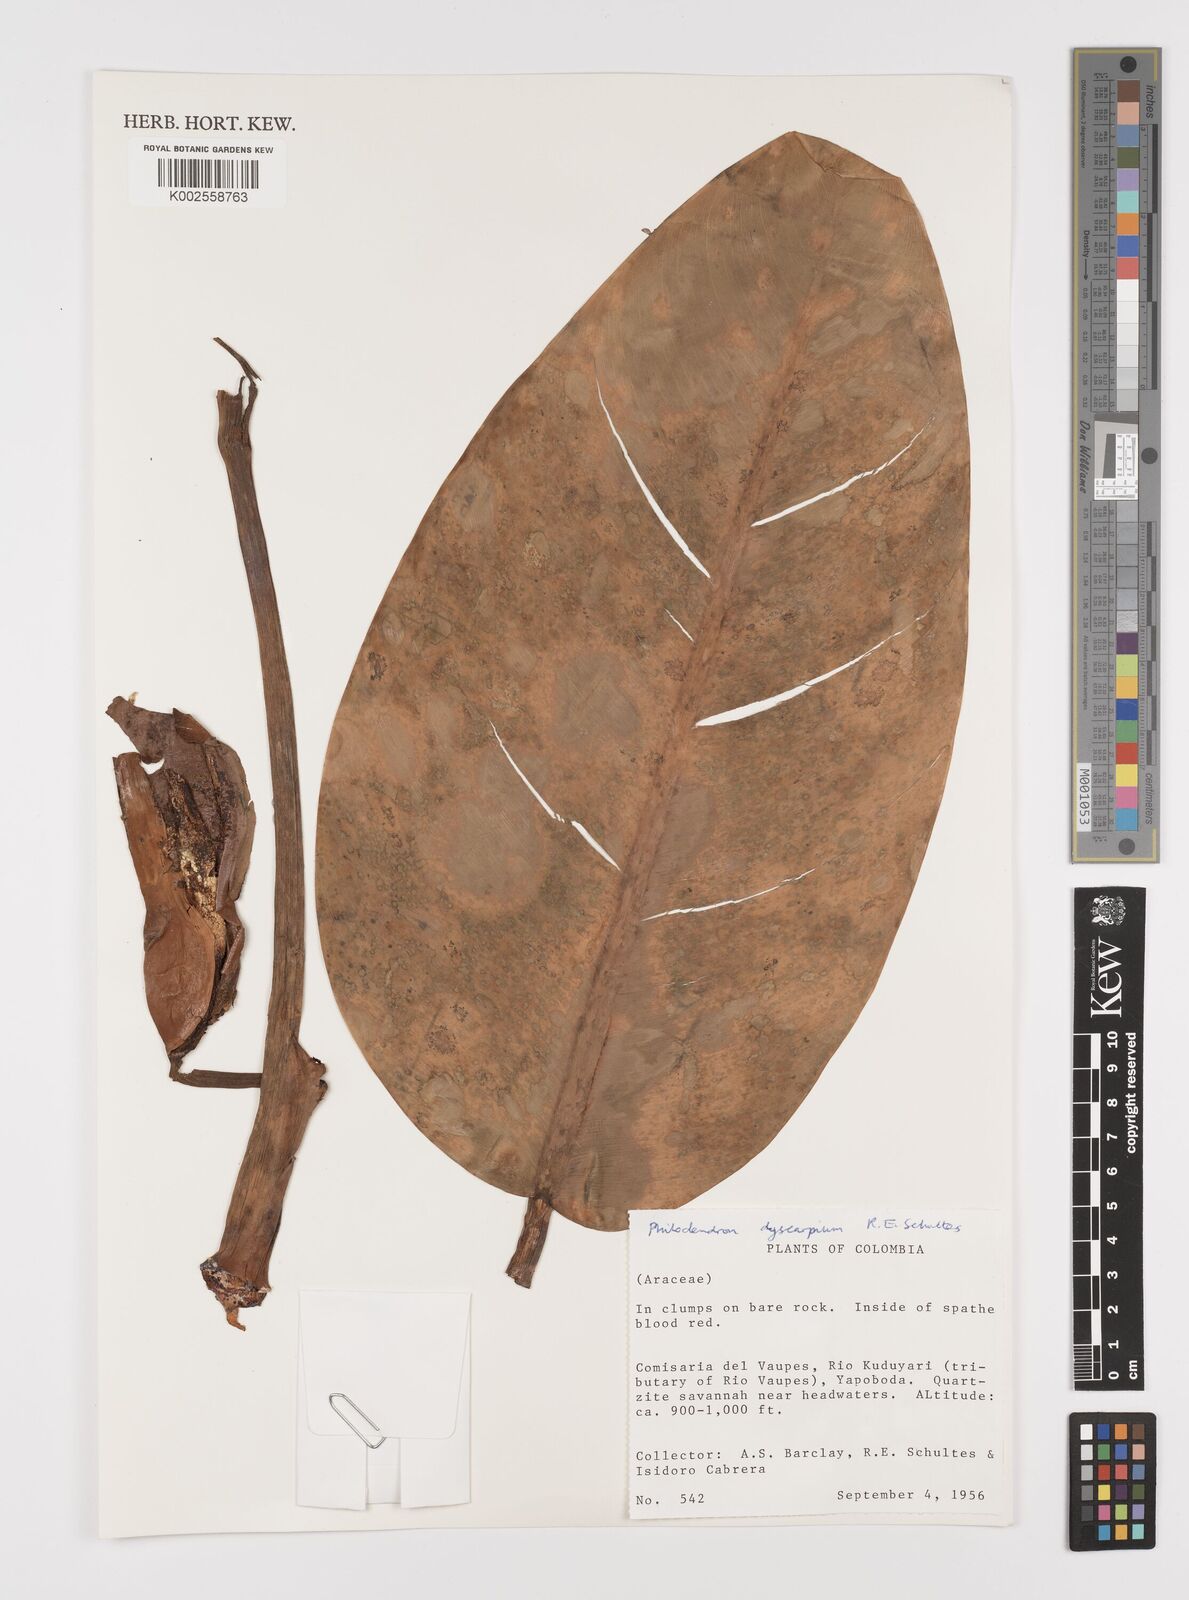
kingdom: Plantae
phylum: Tracheophyta
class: Liliopsida
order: Alismatales
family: Araceae
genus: Philodendron
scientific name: Philodendron dyscarpium
